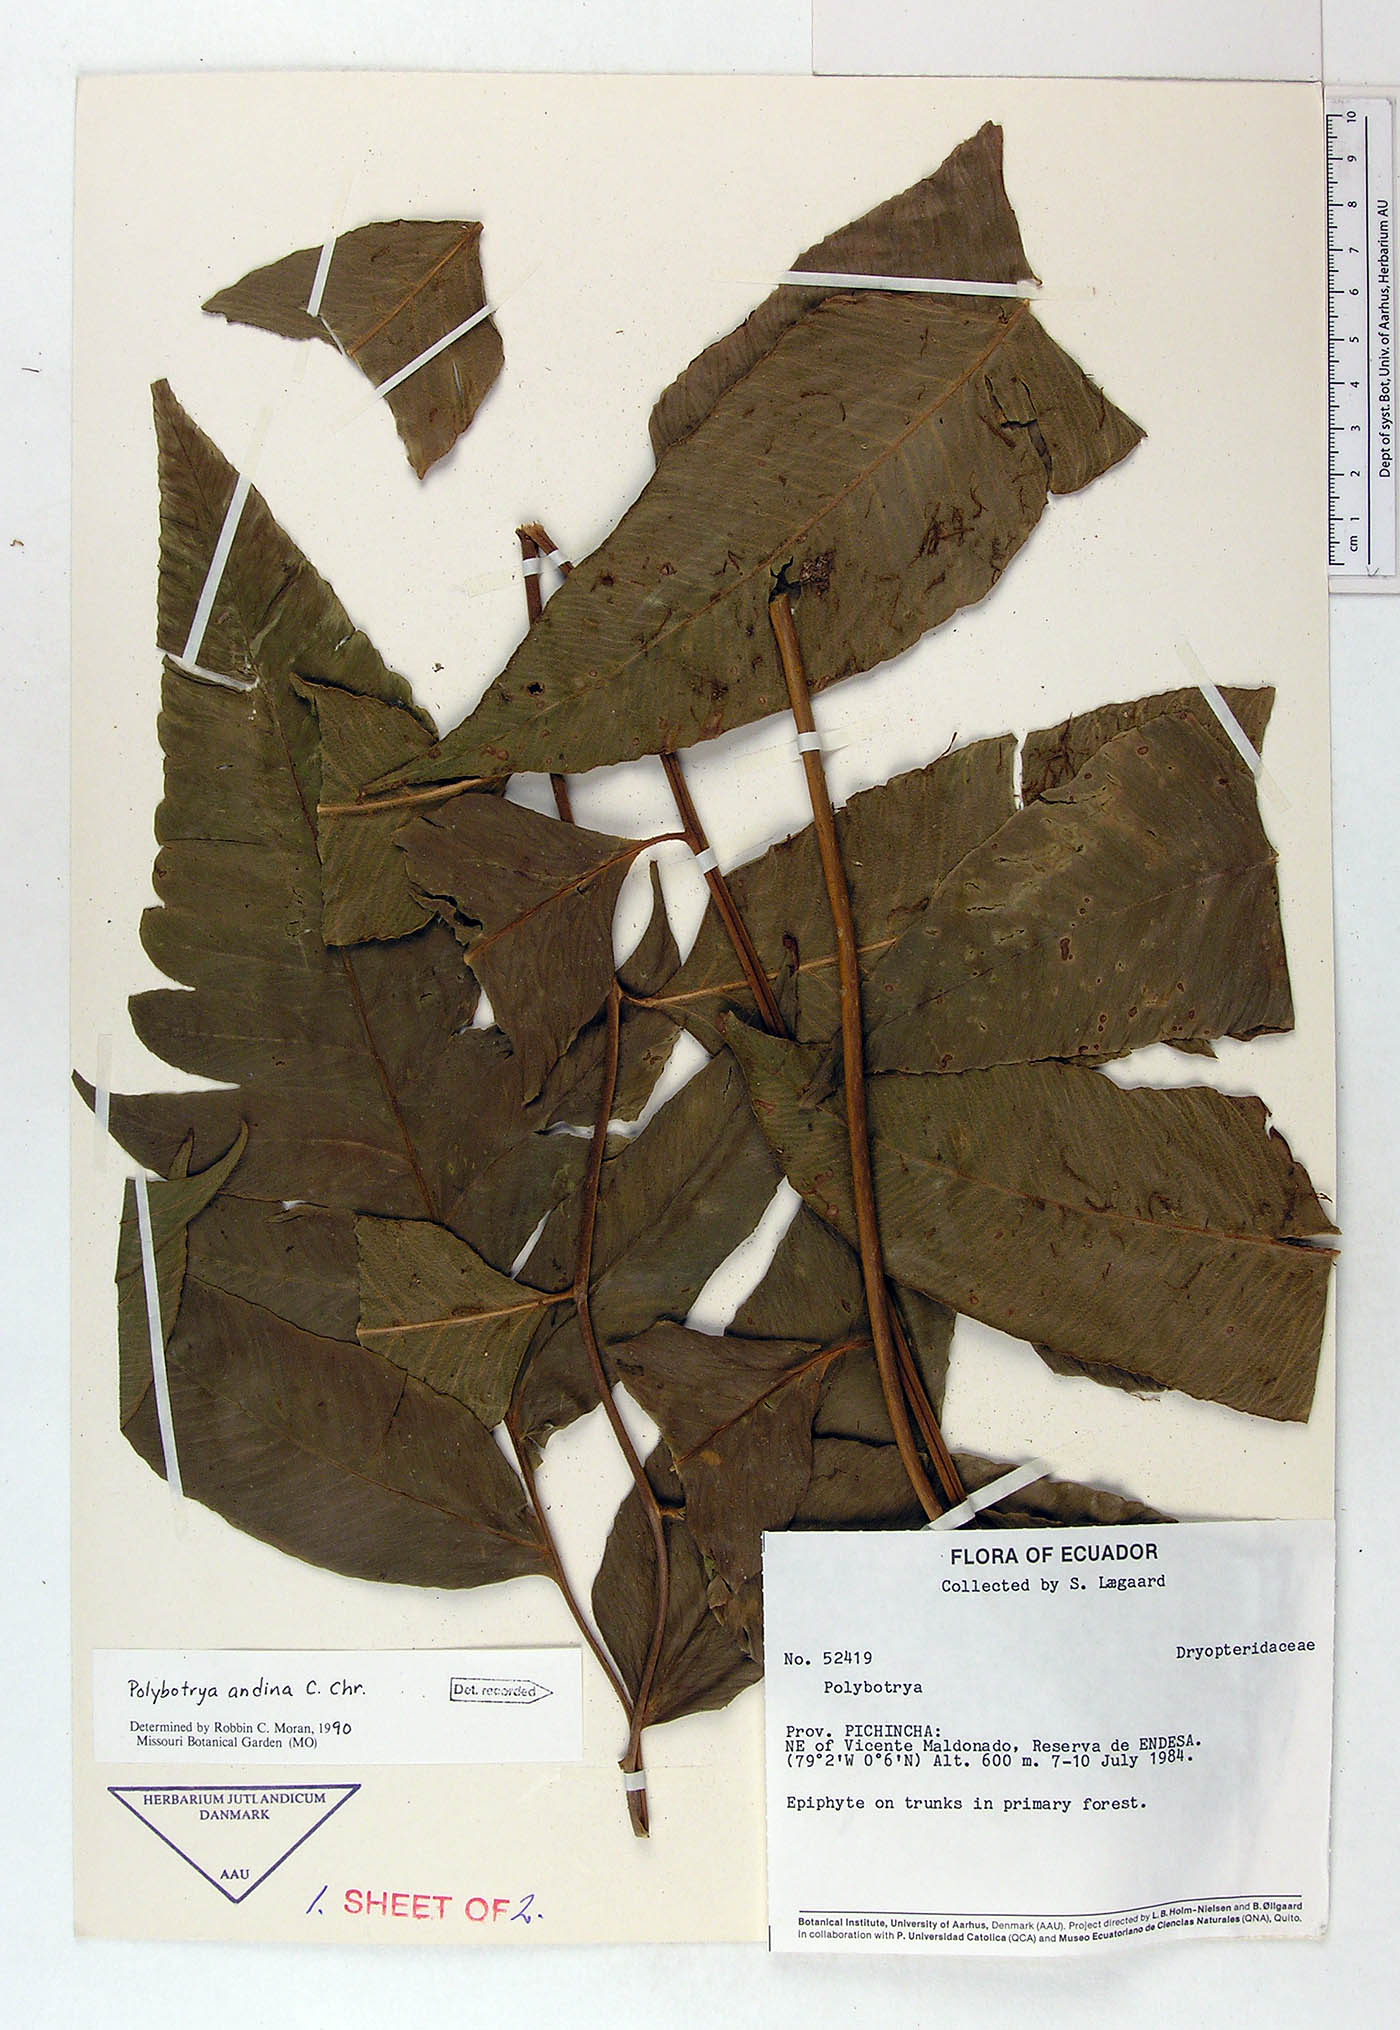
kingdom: Plantae
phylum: Tracheophyta
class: Polypodiopsida
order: Polypodiales
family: Dryopteridaceae
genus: Polybotrya
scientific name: Polybotrya andina
